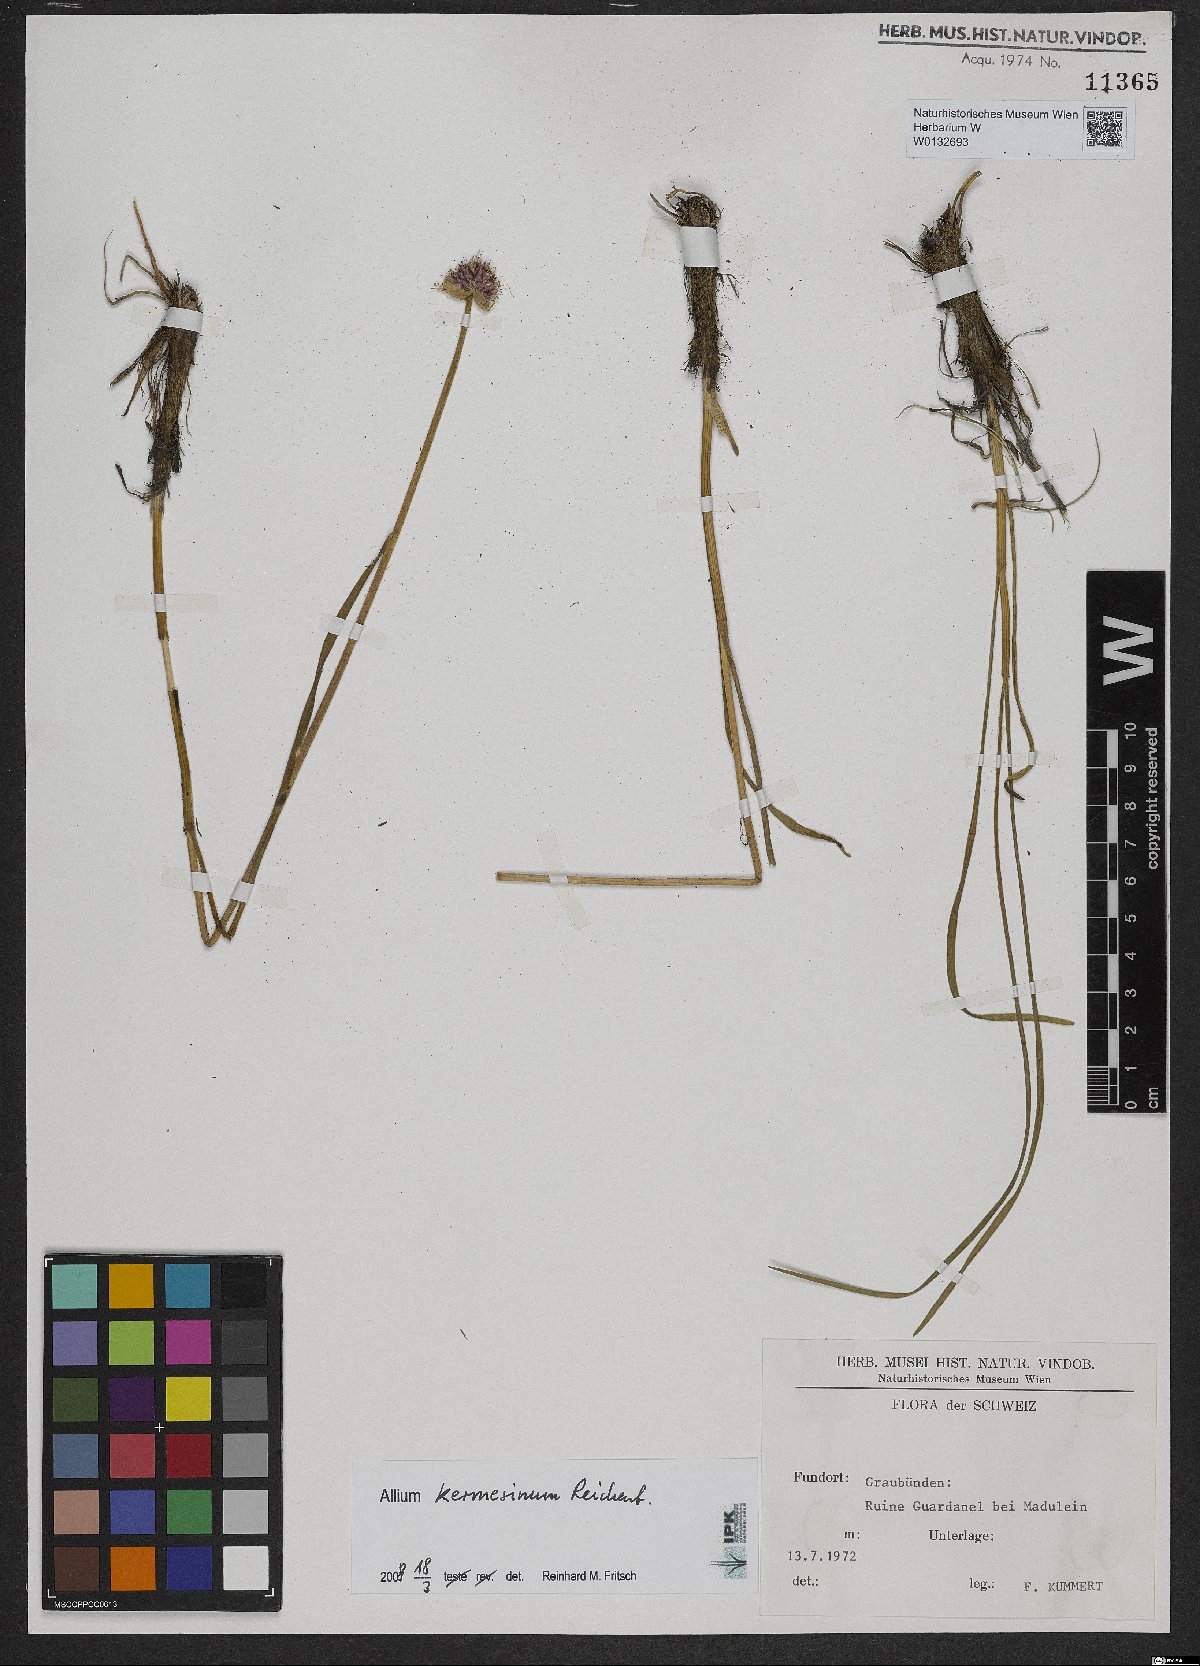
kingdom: Plantae
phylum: Tracheophyta
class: Liliopsida
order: Asparagales
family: Amaryllidaceae
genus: Allium
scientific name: Allium kermesinum
